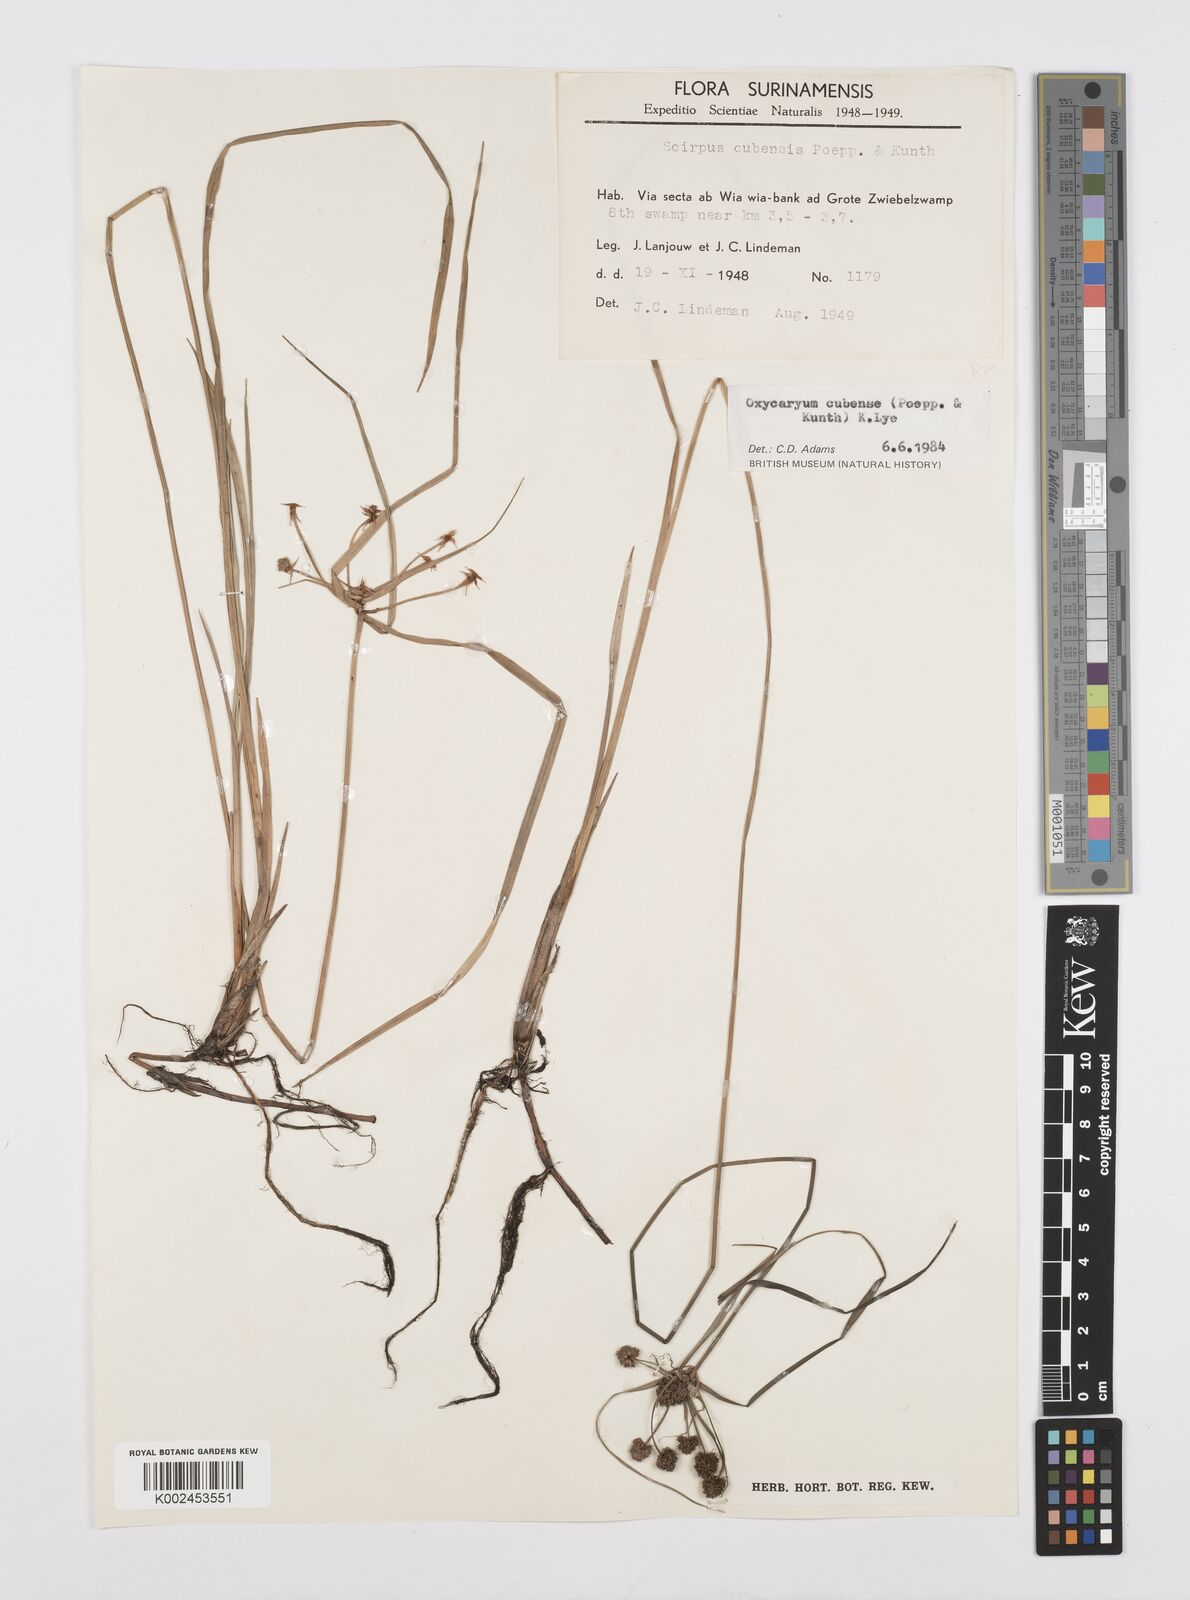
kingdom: Plantae
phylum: Tracheophyta
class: Liliopsida
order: Poales
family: Cyperaceae
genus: Cyperus
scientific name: Cyperus elegans
